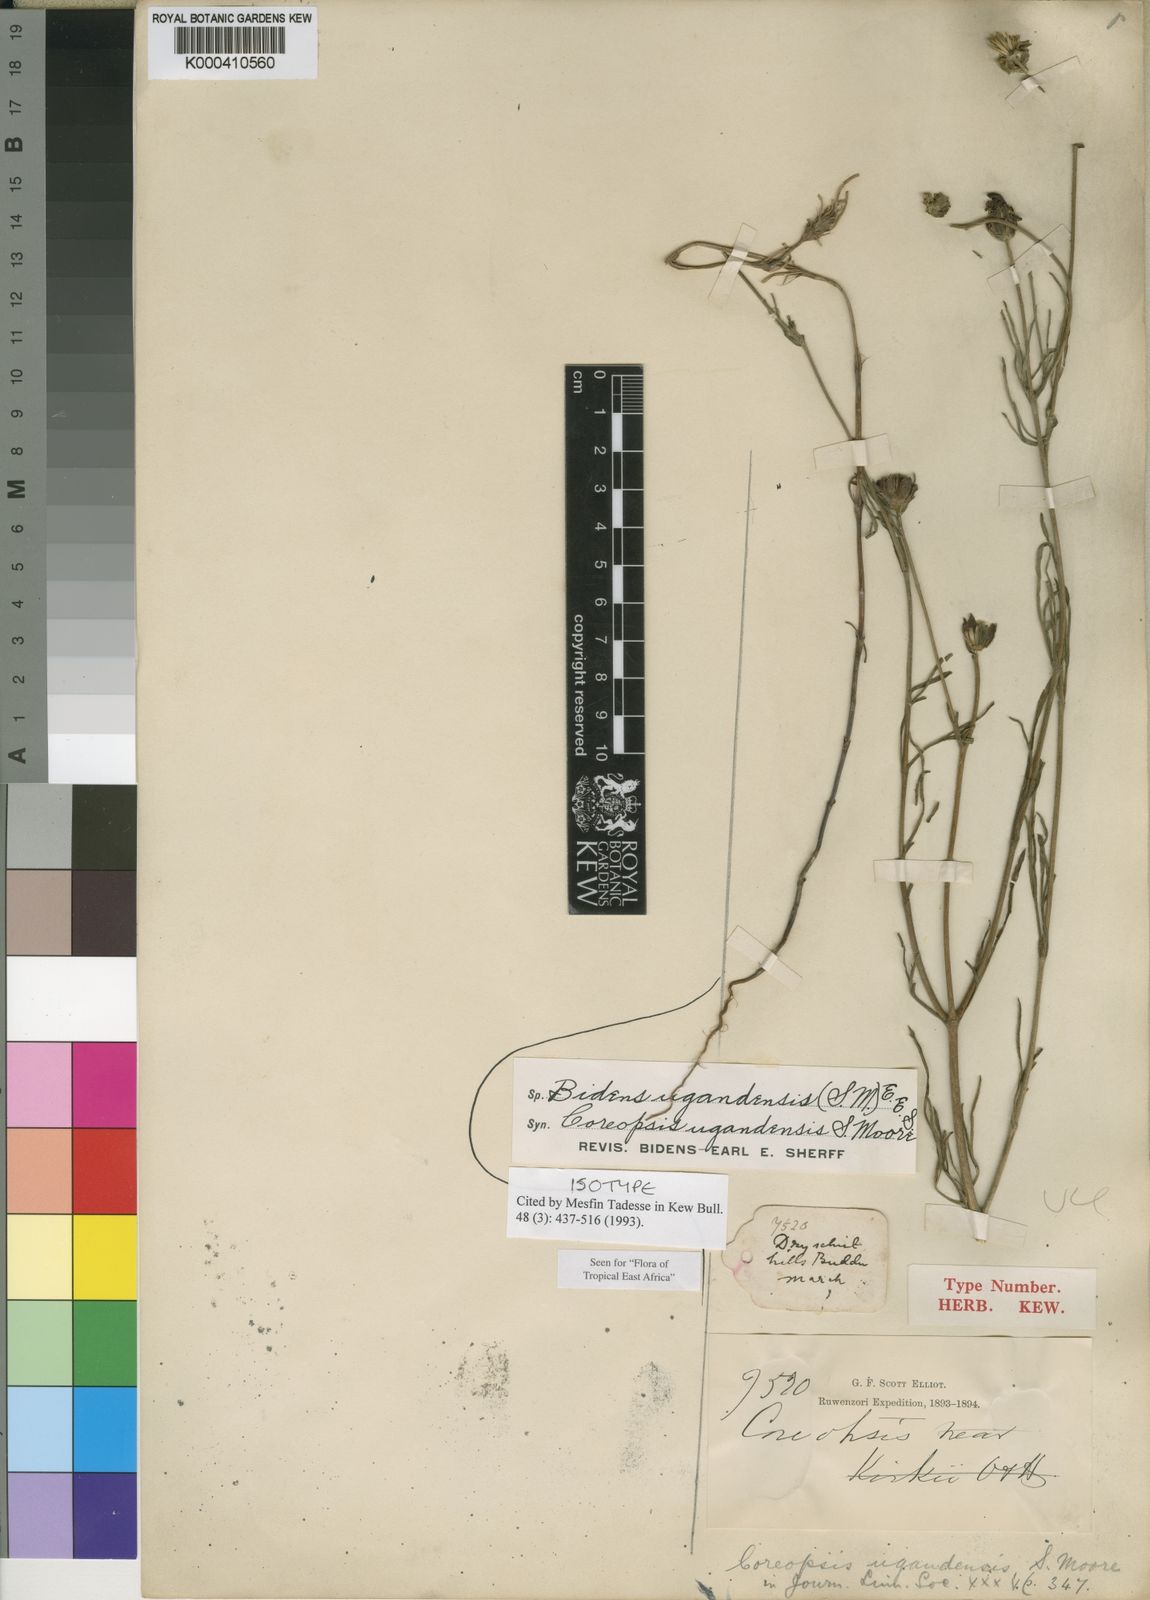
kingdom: Plantae
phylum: Tracheophyta
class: Magnoliopsida
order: Asterales
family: Asteraceae
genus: Bidens
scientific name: Bidens ugandensis
